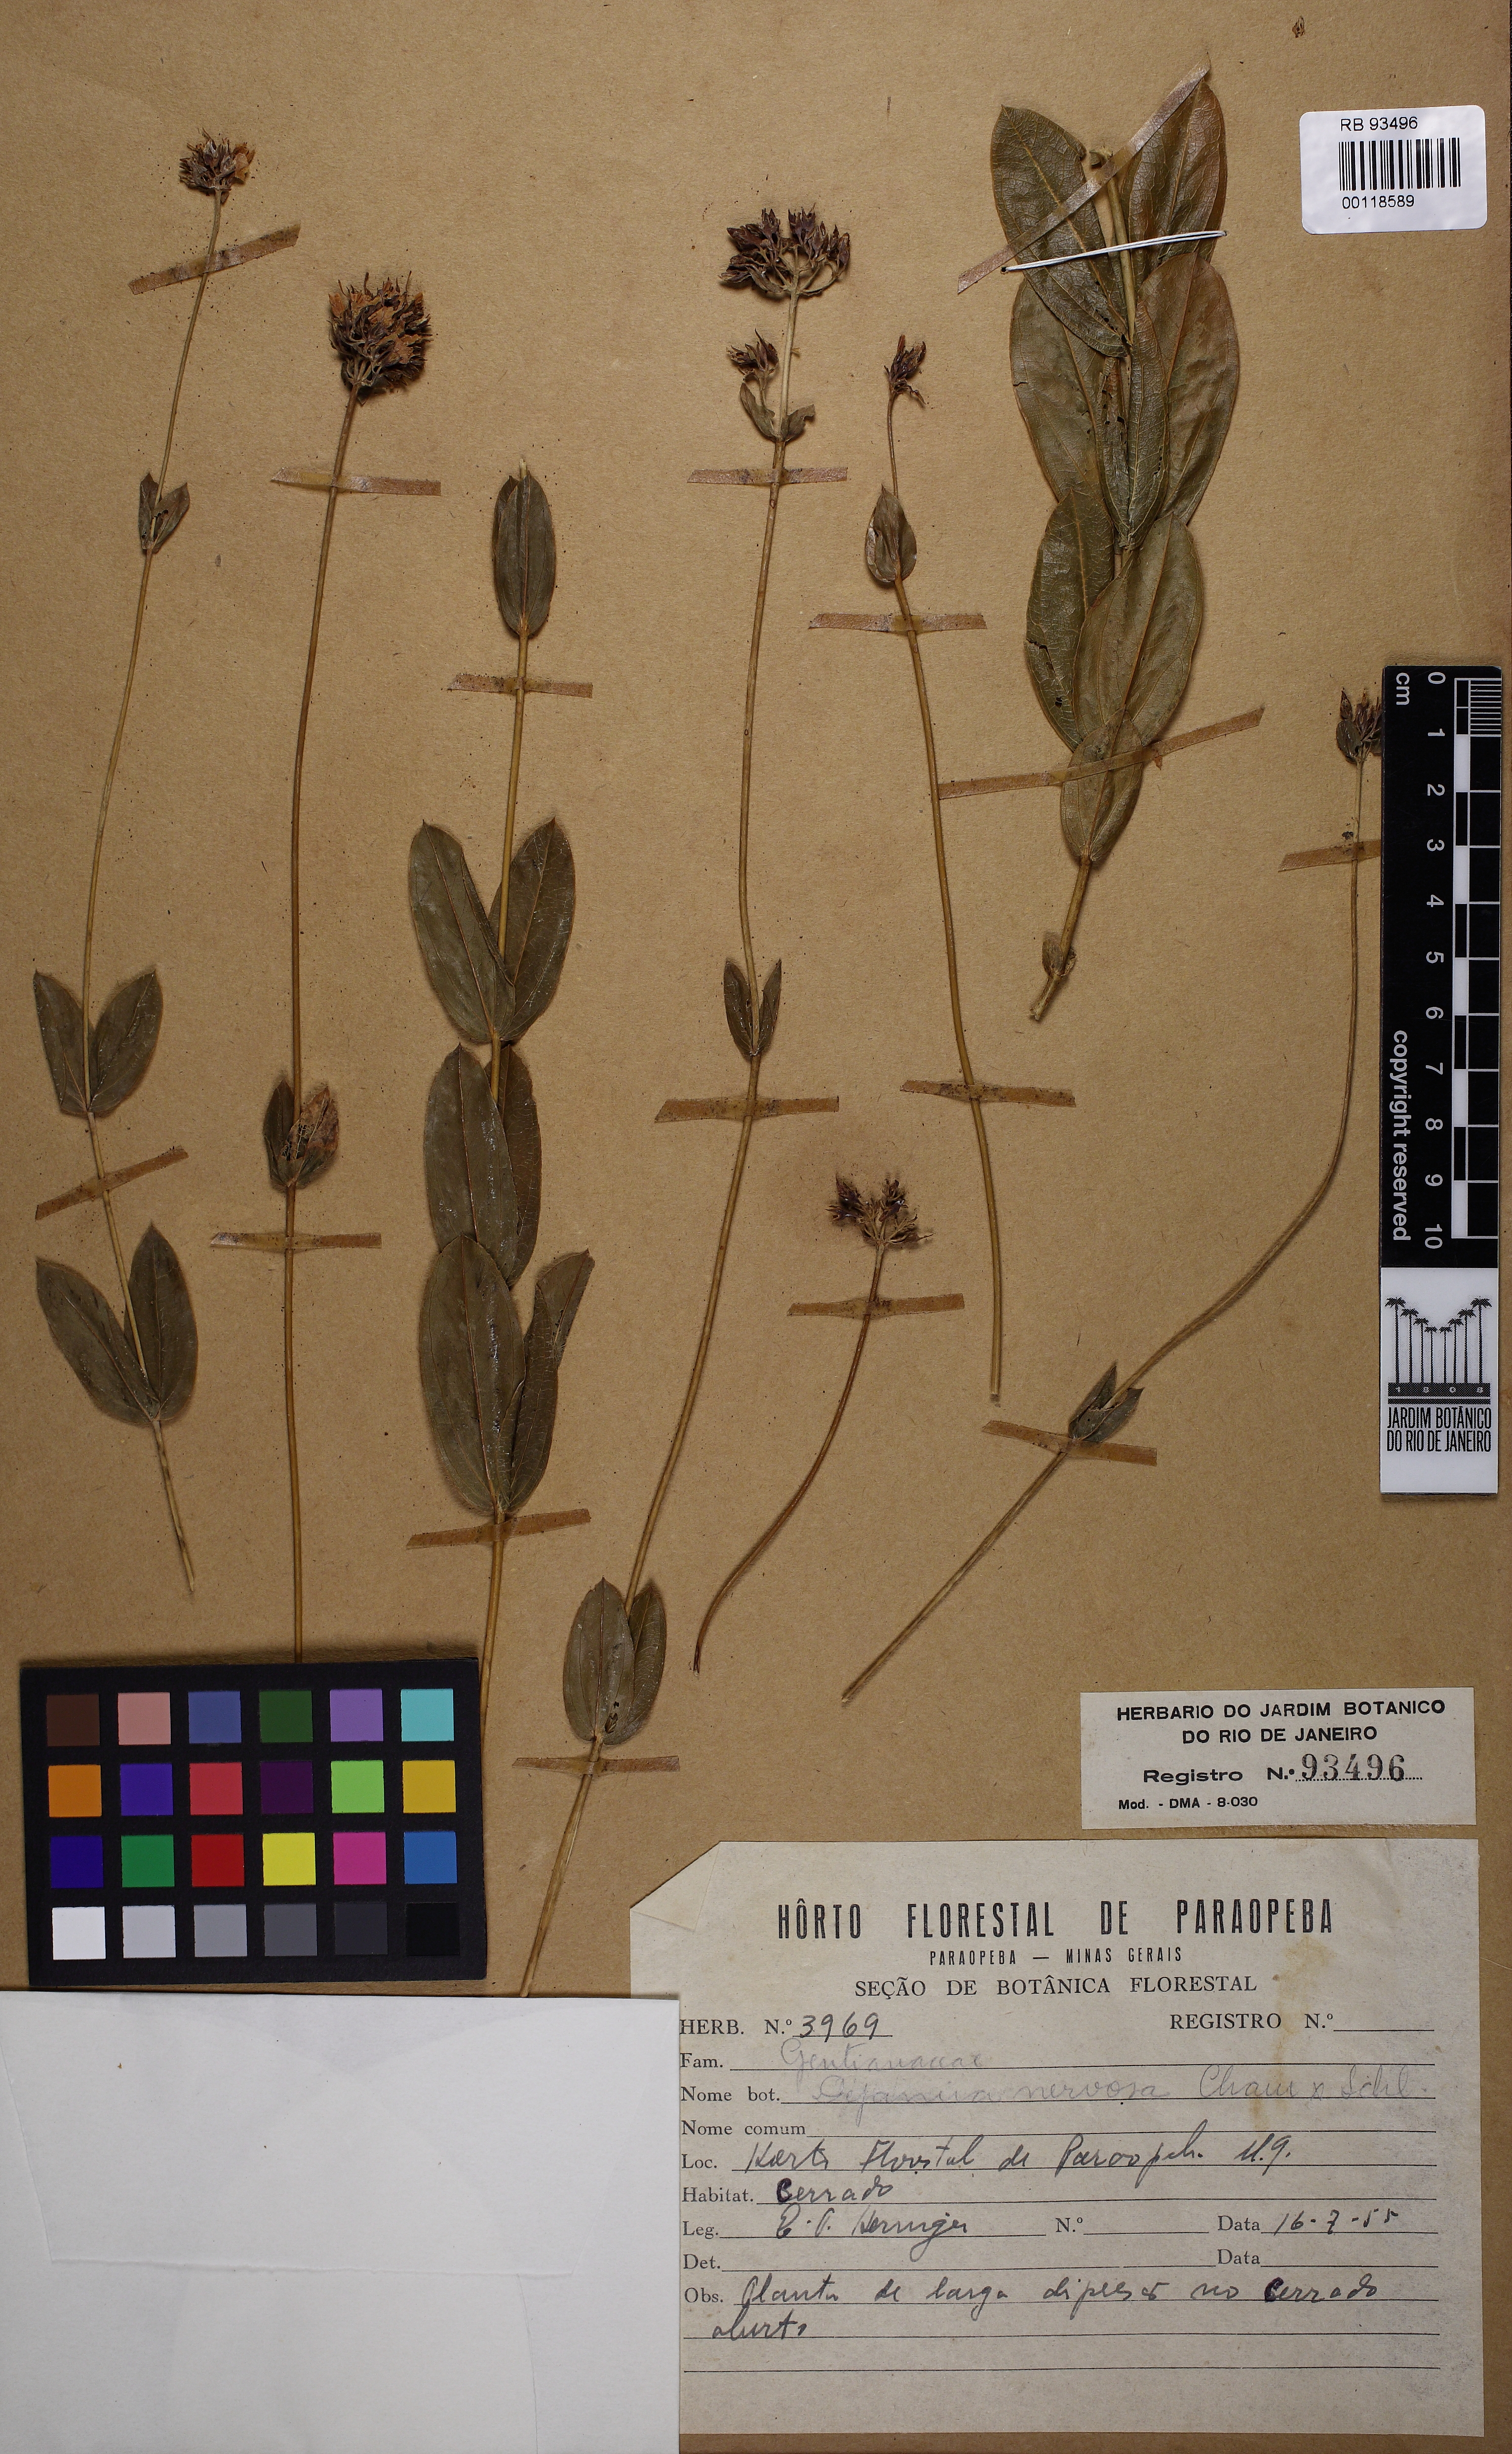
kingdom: Plantae
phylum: Tracheophyta
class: Magnoliopsida
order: Gentianales
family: Gentianaceae
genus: Deianira
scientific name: Deianira nervosa
